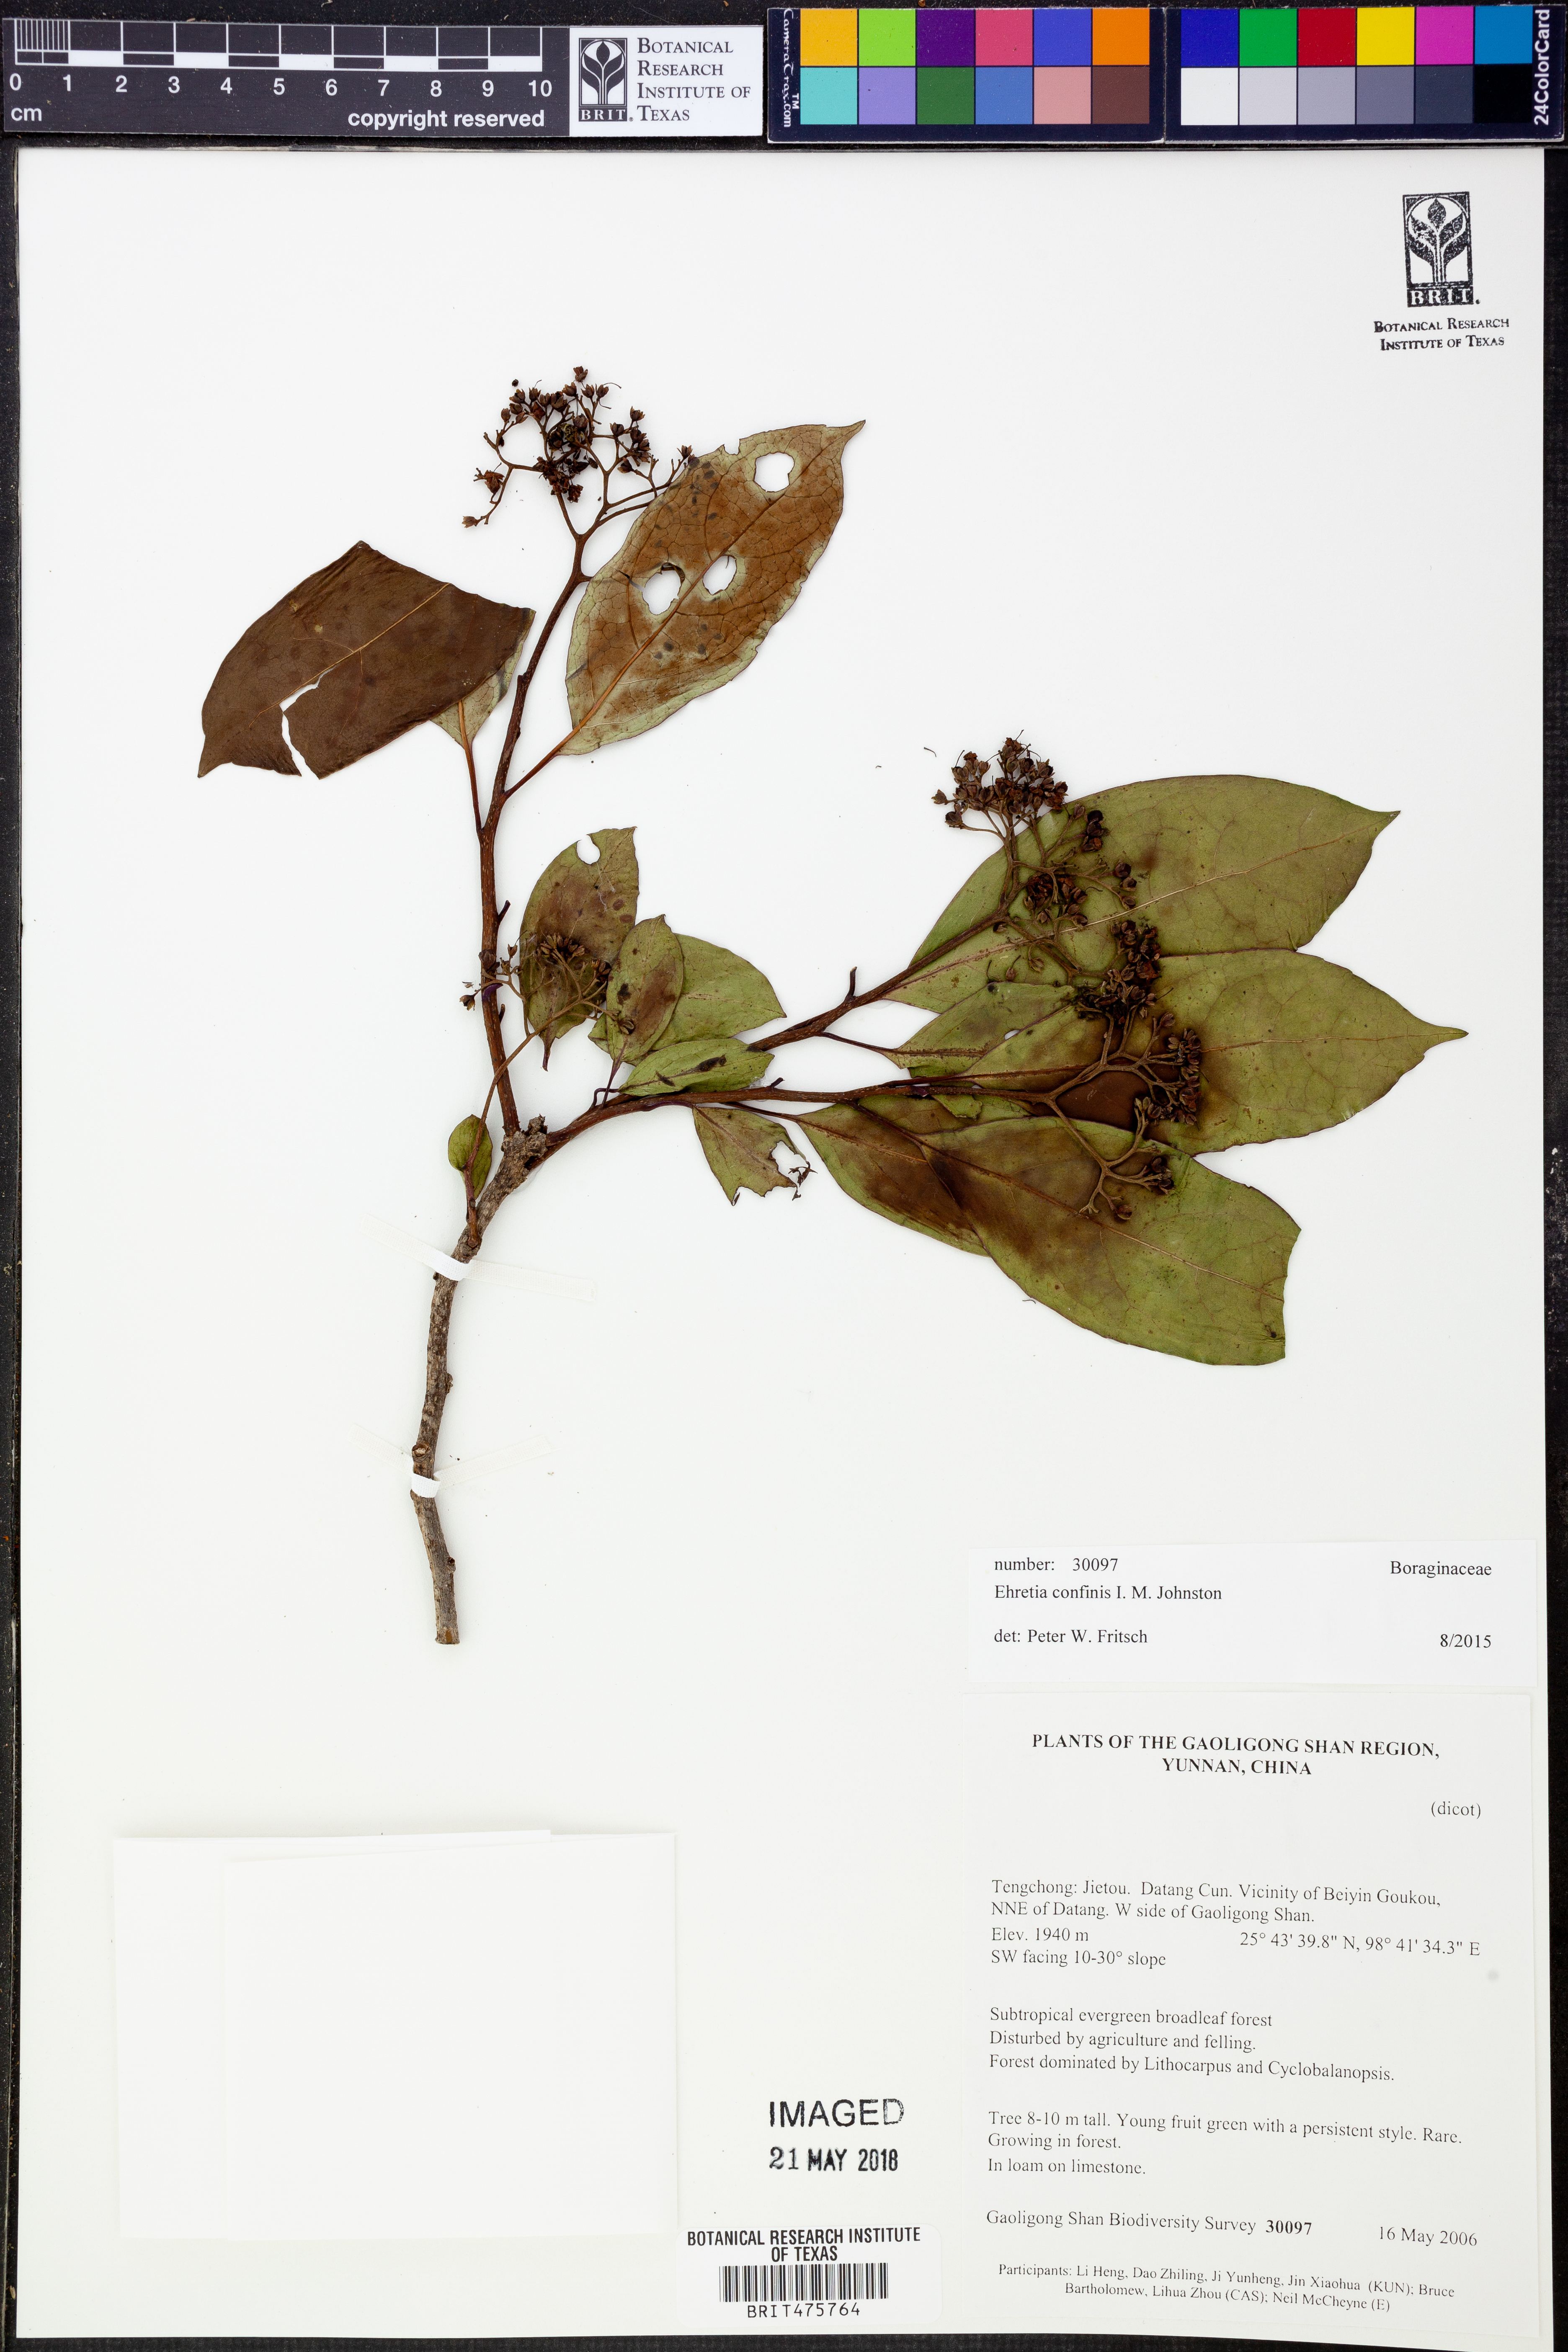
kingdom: Plantae
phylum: Tracheophyta
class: Magnoliopsida
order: Boraginales
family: Ehretiaceae
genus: Ehretia
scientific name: Ehretia confinis
